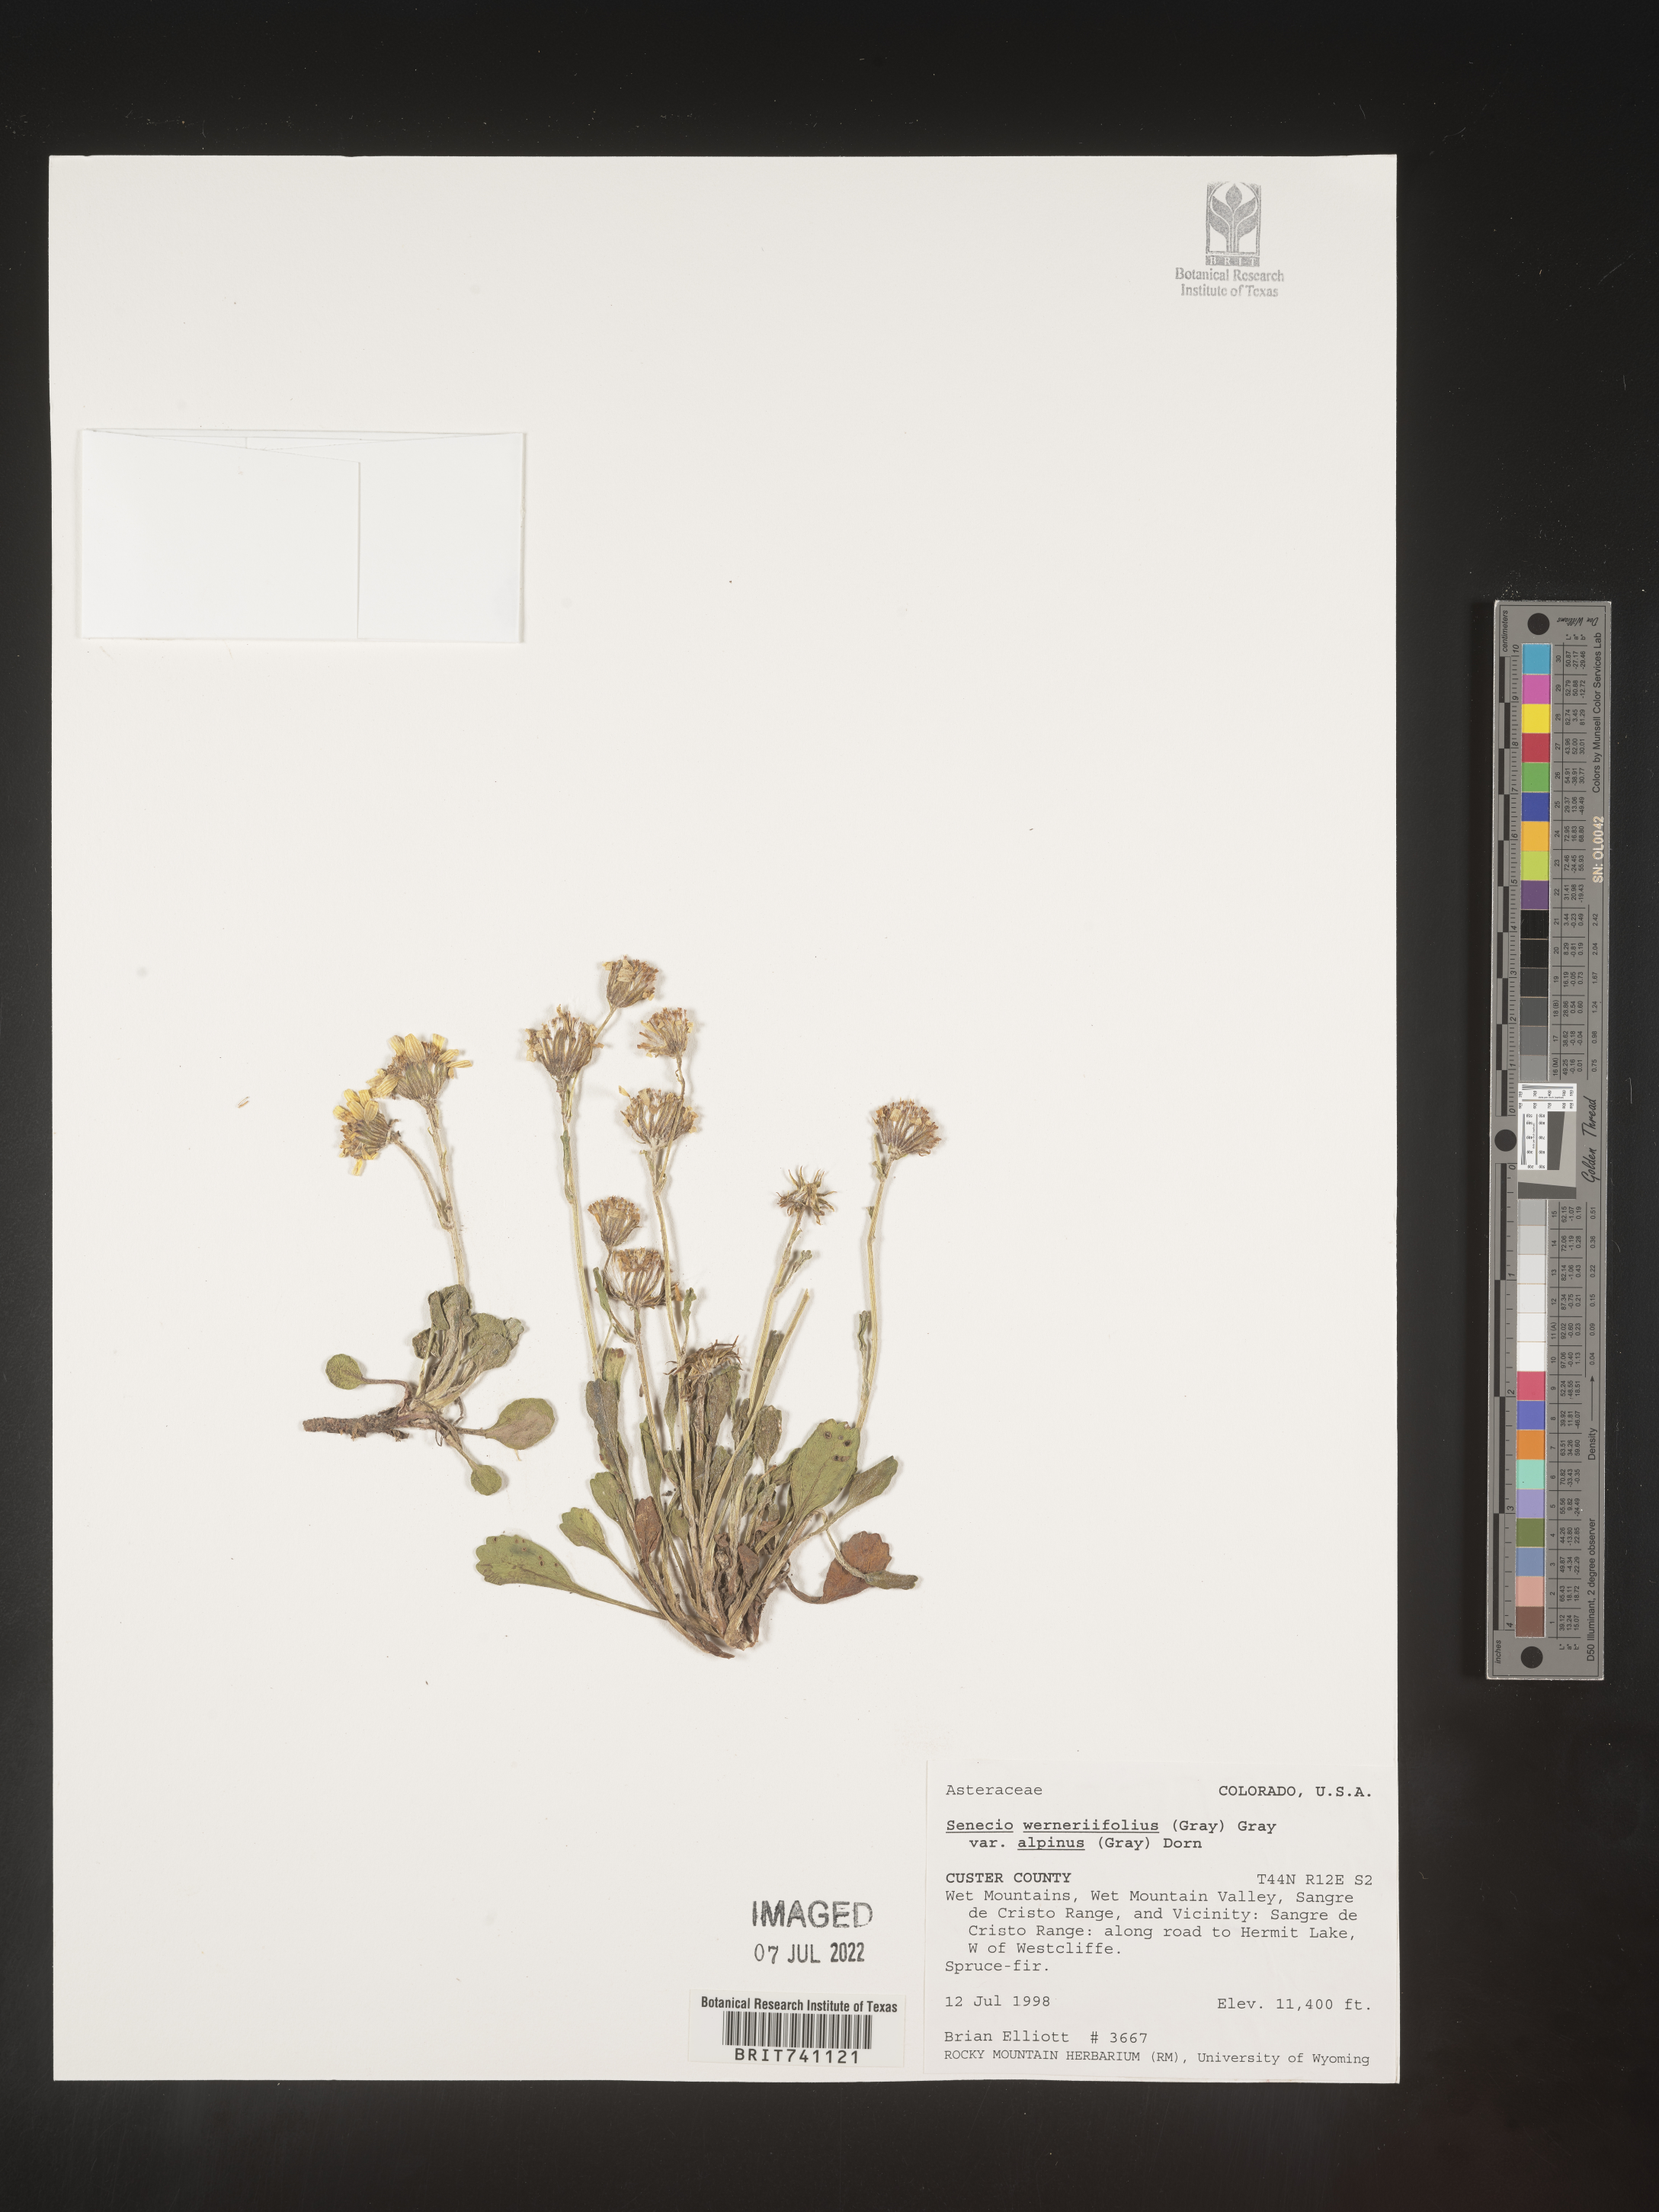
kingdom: Plantae
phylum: Tracheophyta
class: Magnoliopsida
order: Asterales
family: Asteraceae
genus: Packera
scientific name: Packera werneriifolia
